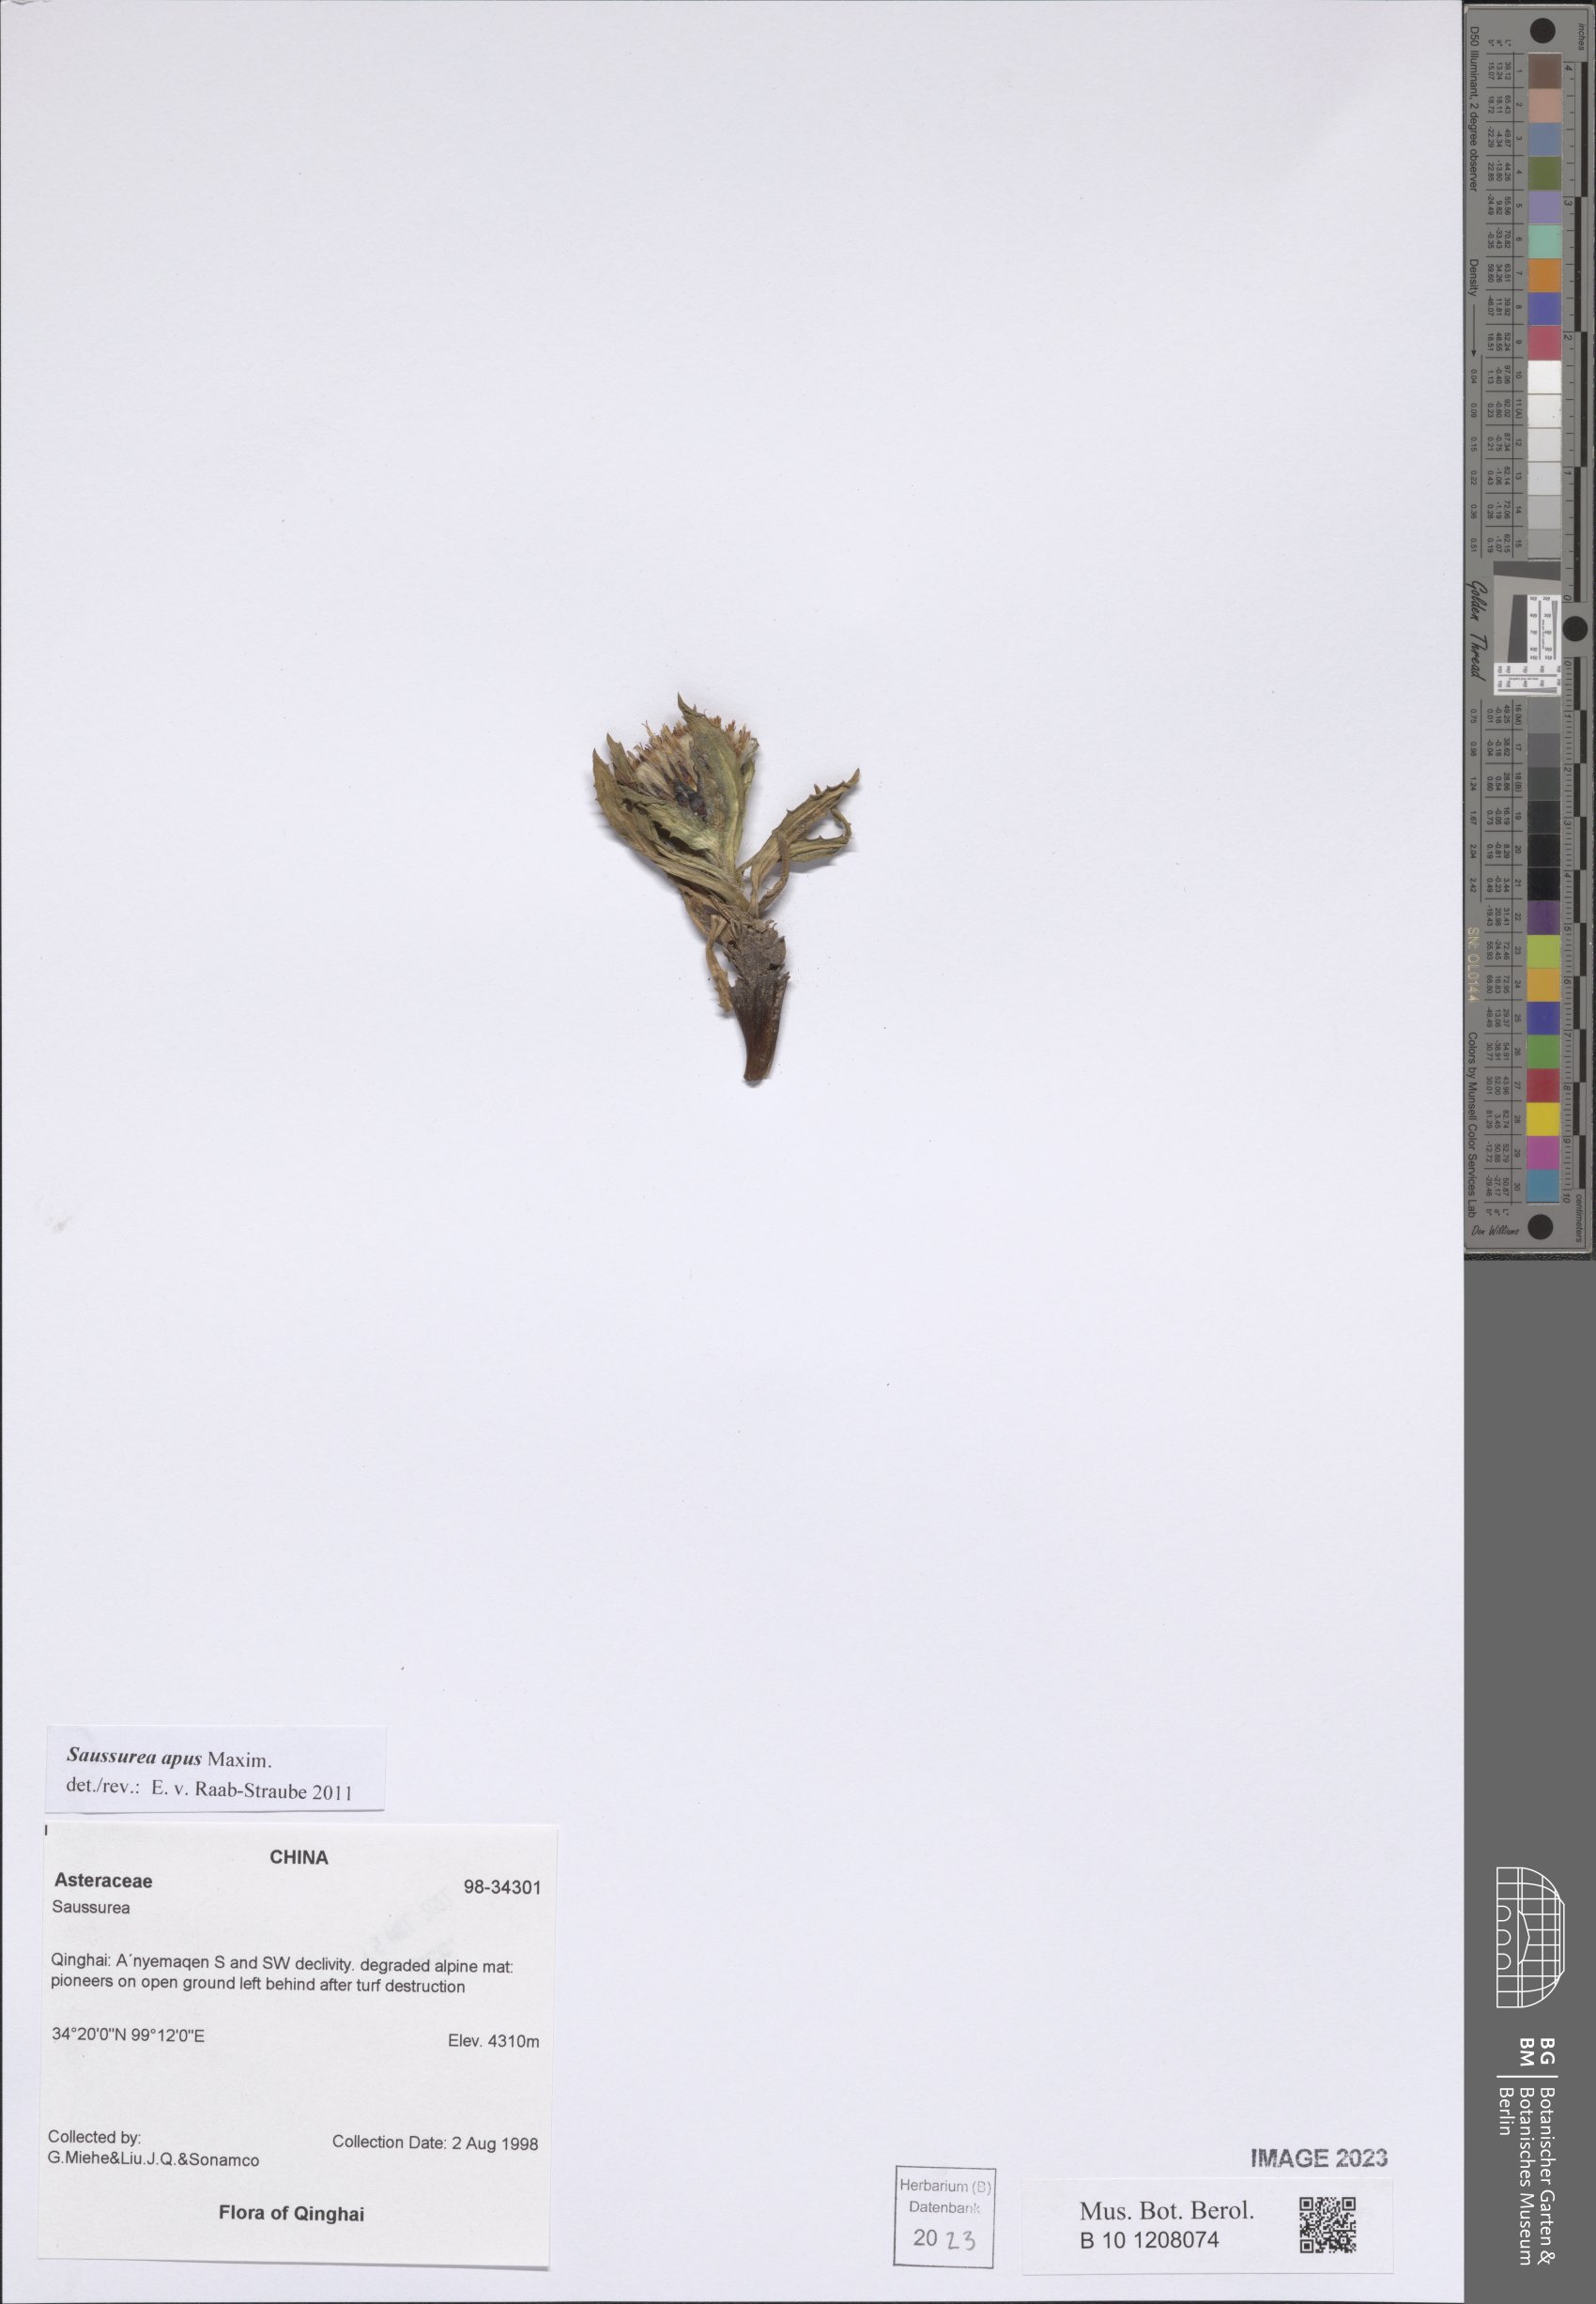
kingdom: Plantae
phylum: Tracheophyta
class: Magnoliopsida
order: Asterales
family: Asteraceae
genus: Saussurea
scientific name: Saussurea apus
